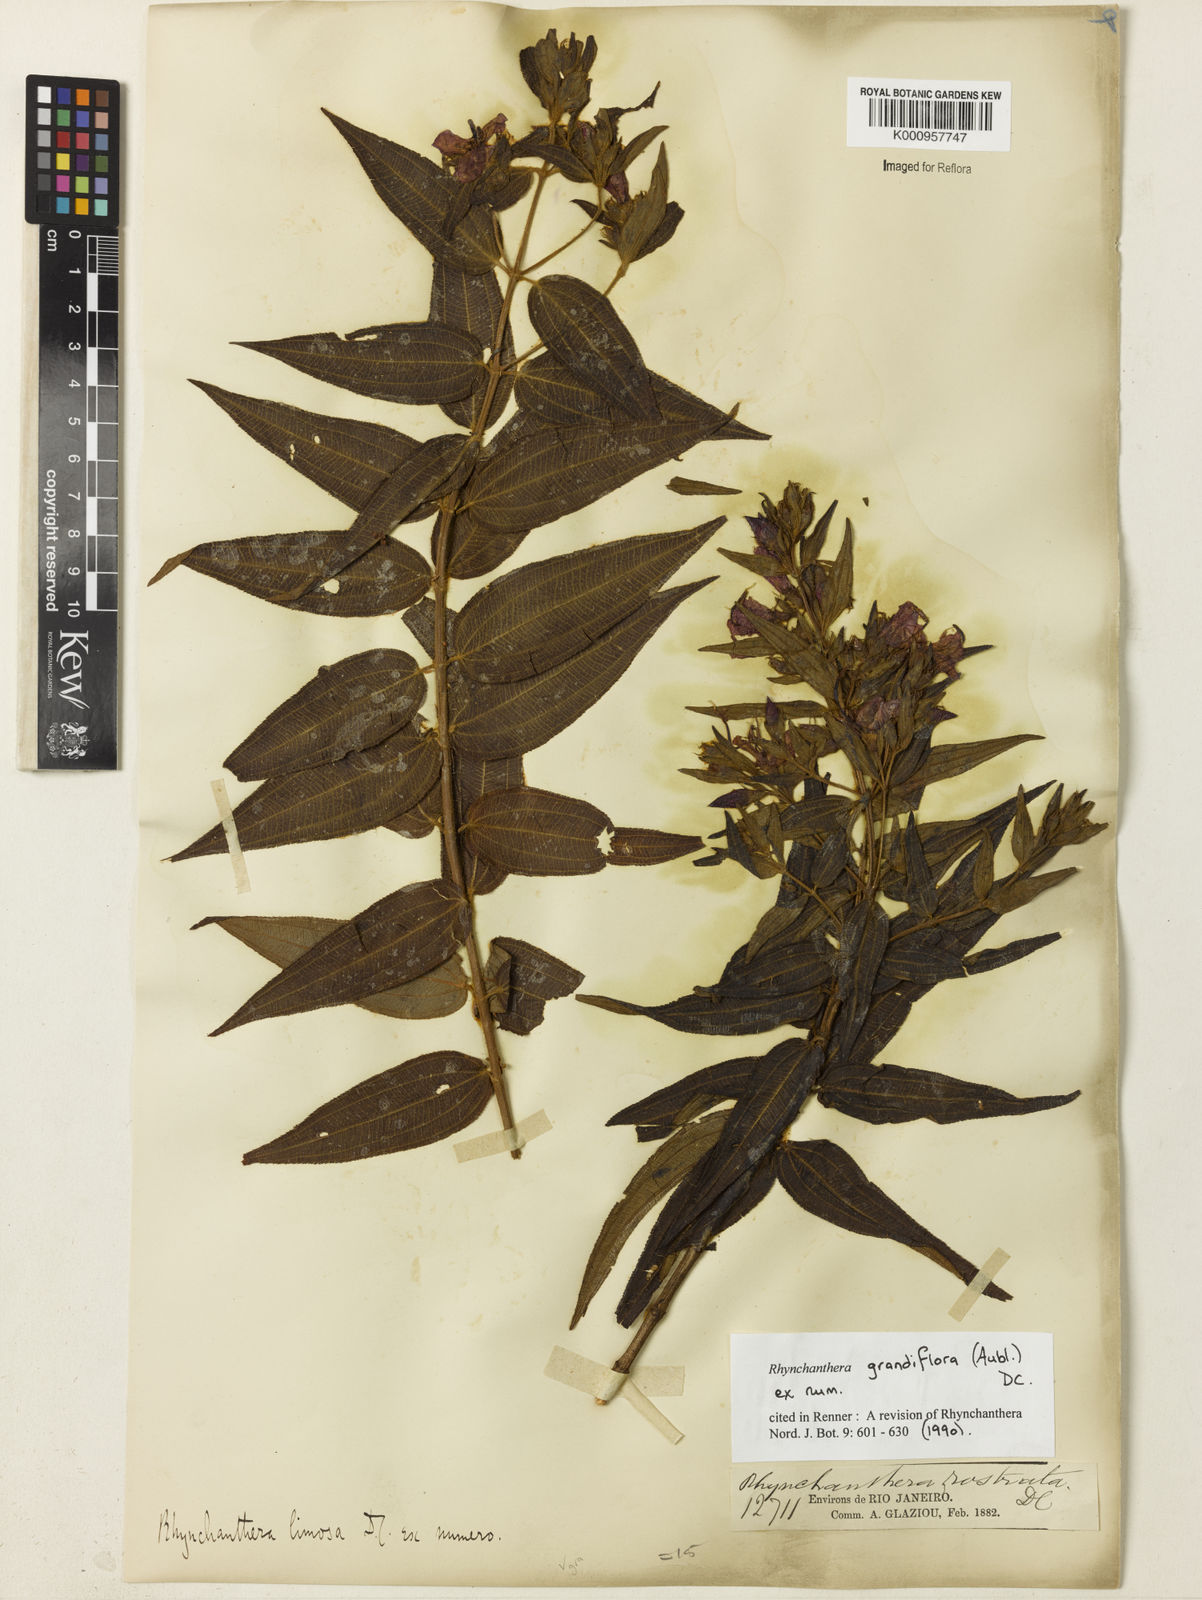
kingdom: Plantae
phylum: Tracheophyta
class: Magnoliopsida
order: Myrtales
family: Melastomataceae
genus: Rhynchanthera
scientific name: Rhynchanthera grandiflora
